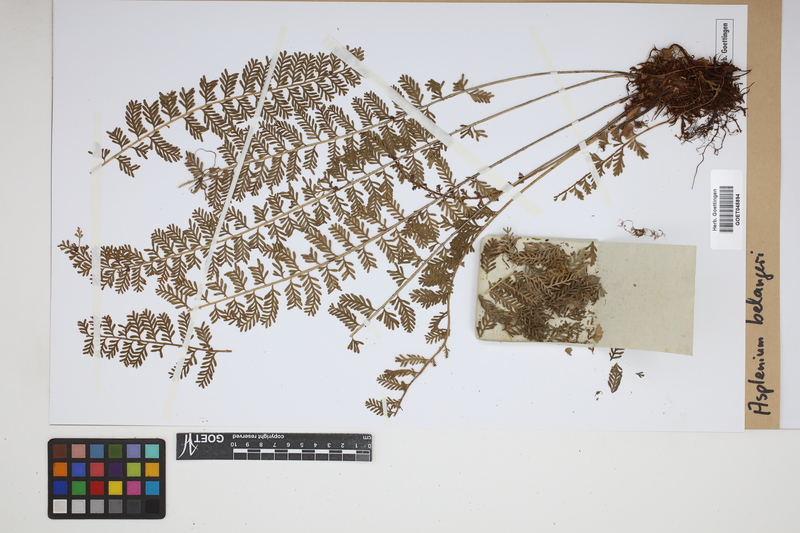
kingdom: Plantae
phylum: Tracheophyta
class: Polypodiopsida
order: Polypodiales
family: Aspleniaceae
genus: Asplenium
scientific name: Asplenium thunbergii
